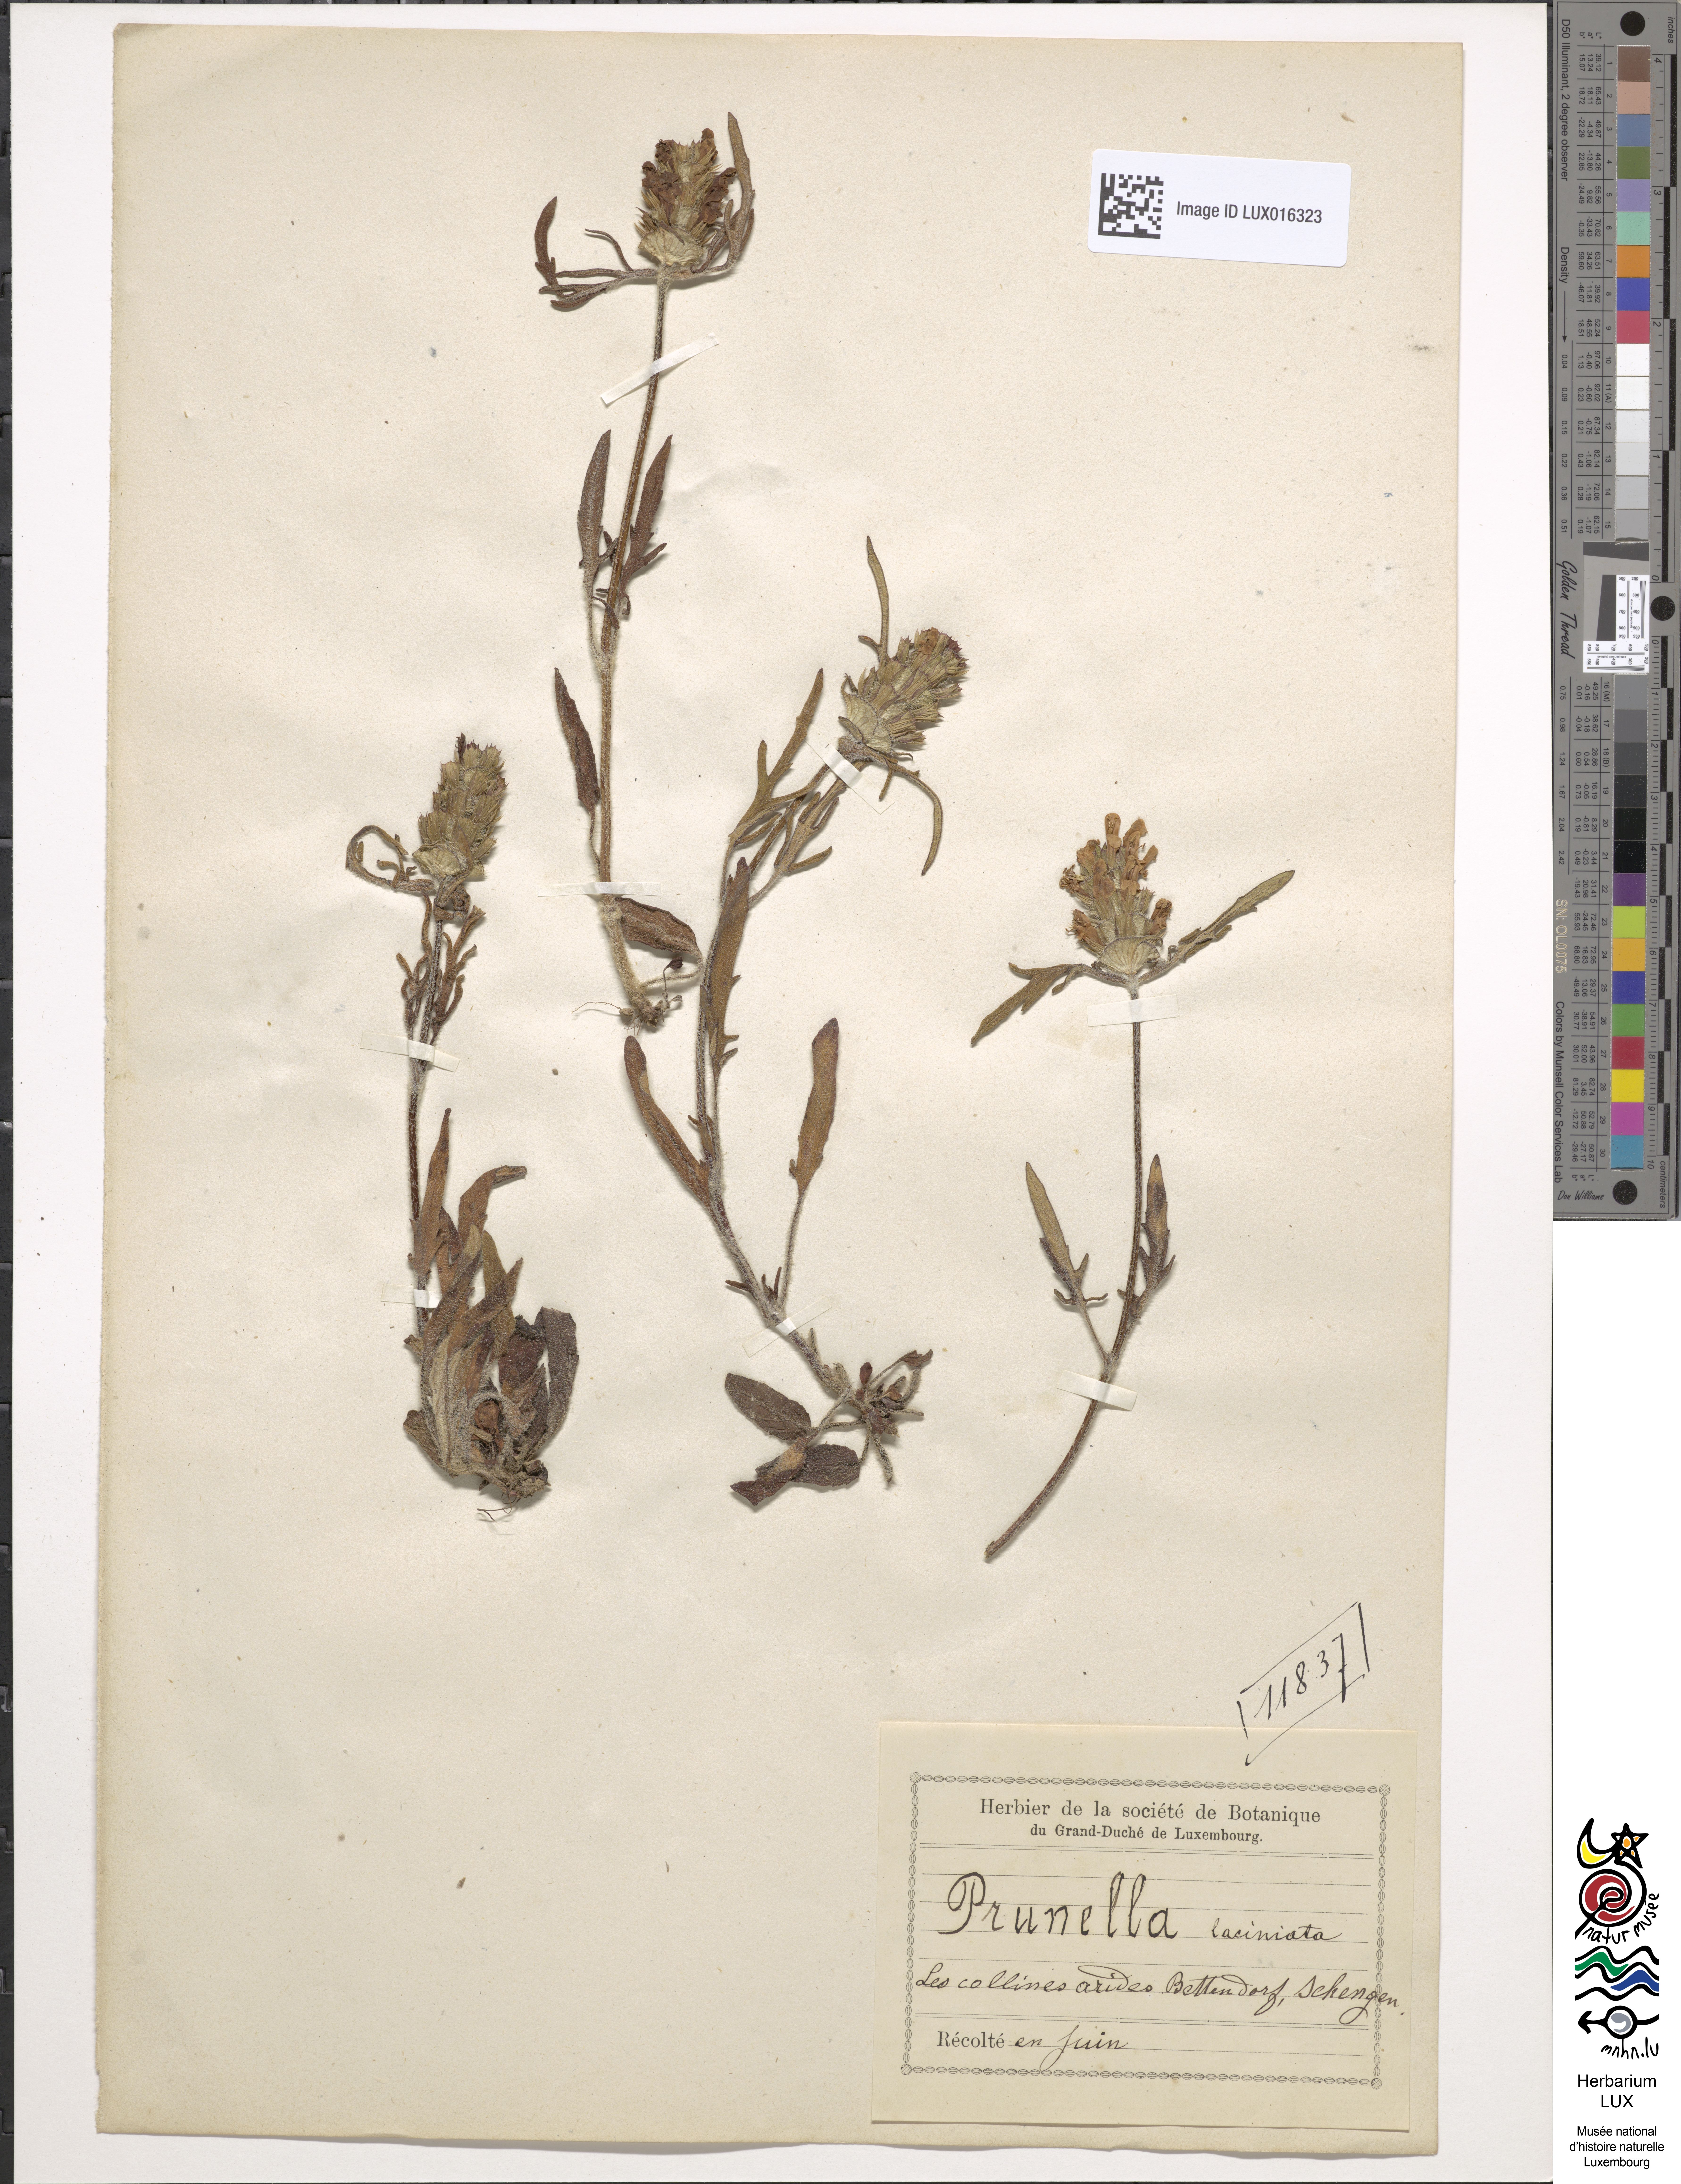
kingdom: Plantae
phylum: Tracheophyta
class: Magnoliopsida
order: Lamiales
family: Lamiaceae
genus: Prunella
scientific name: Prunella laciniata
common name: Cut-leaved selfheal
